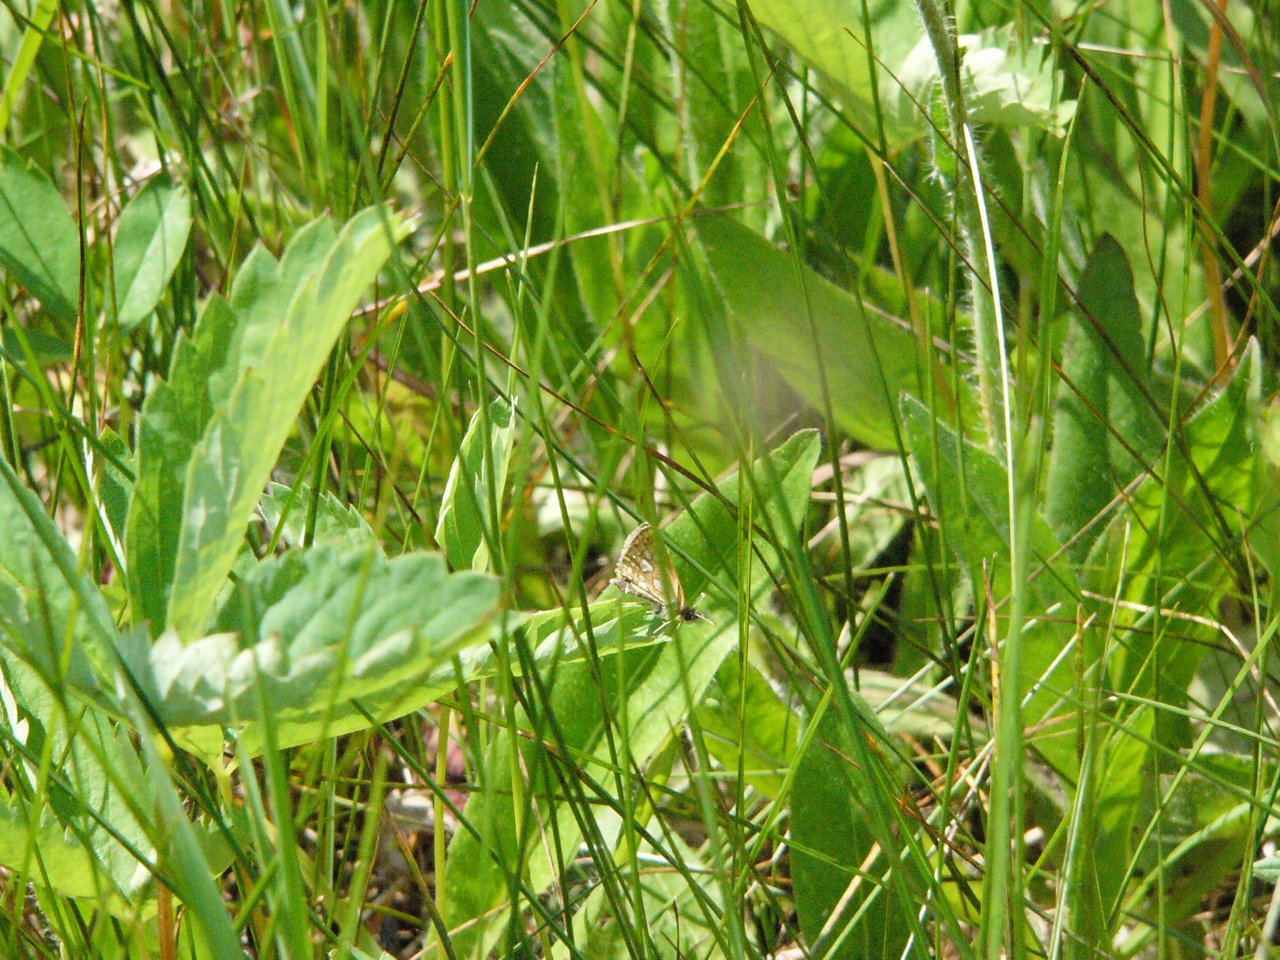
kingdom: Animalia
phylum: Arthropoda
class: Insecta
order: Lepidoptera
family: Hesperiidae
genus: Carterocephalus
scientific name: Carterocephalus palaemon
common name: Chequered Skipper
